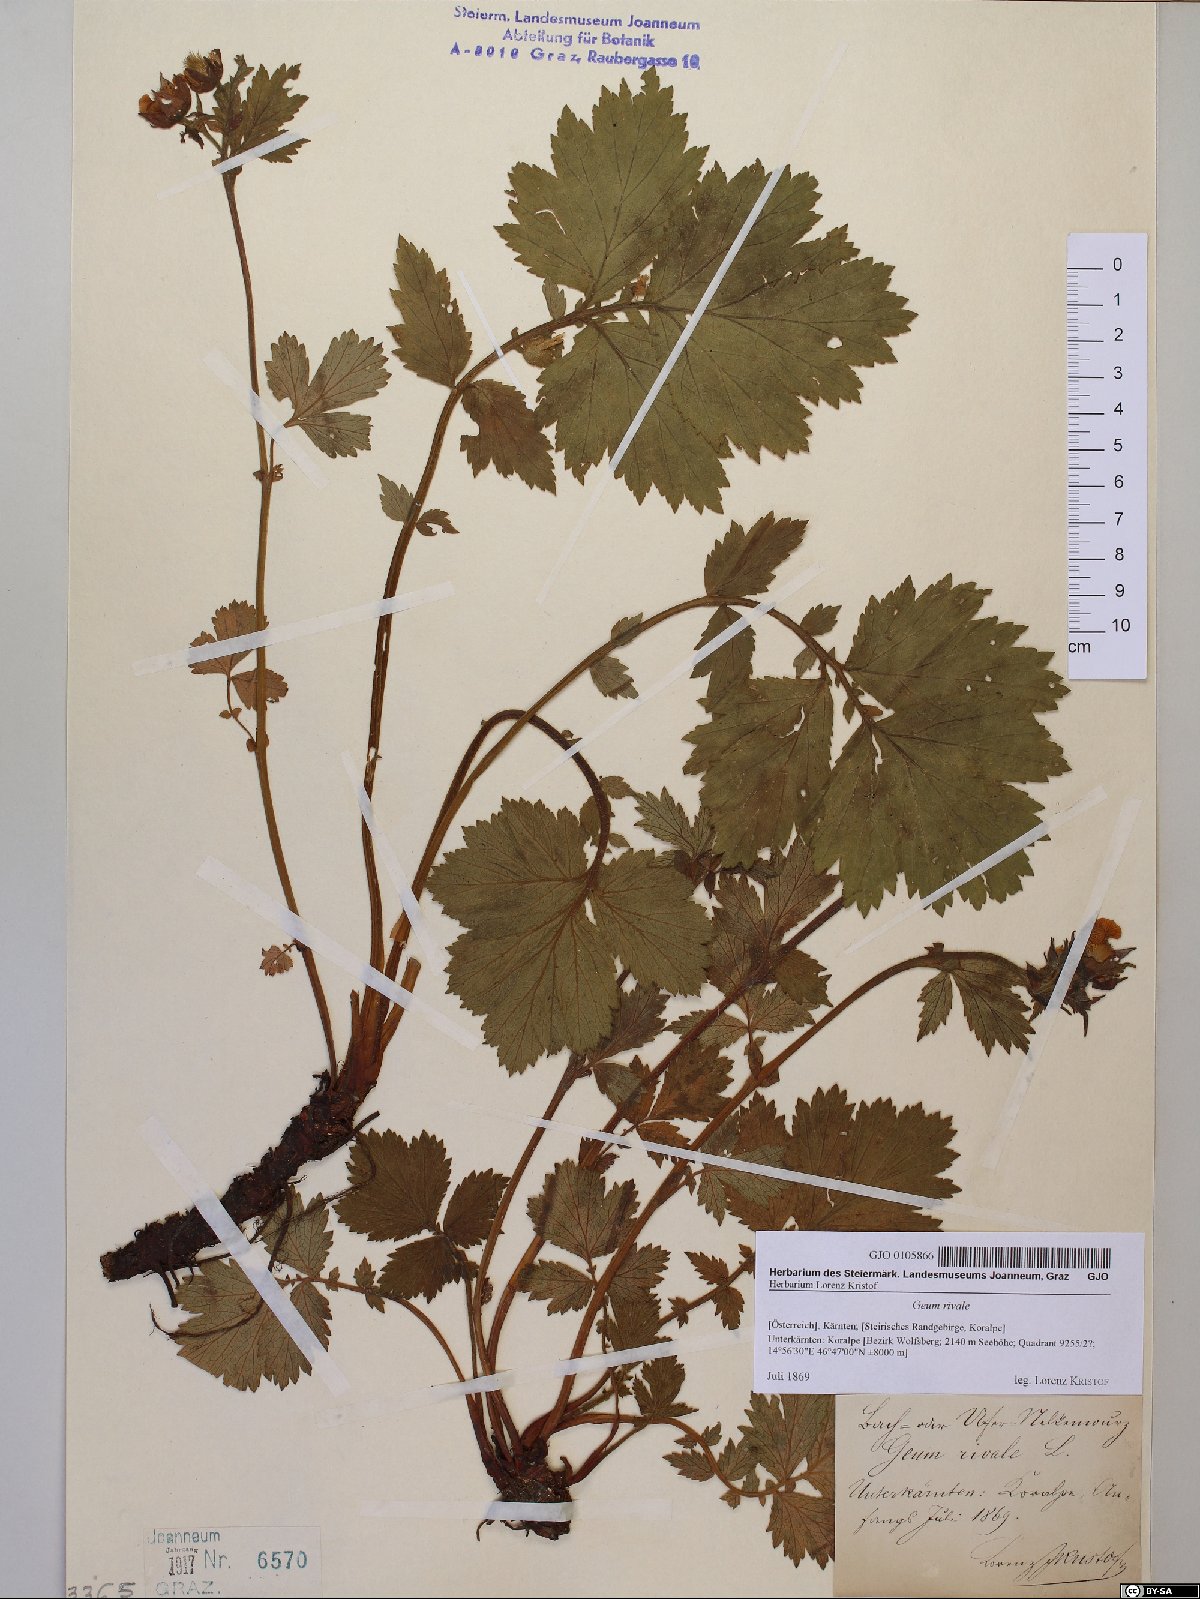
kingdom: Plantae
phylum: Tracheophyta
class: Magnoliopsida
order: Rosales
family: Rosaceae
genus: Geum
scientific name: Geum rivale
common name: Water avens
